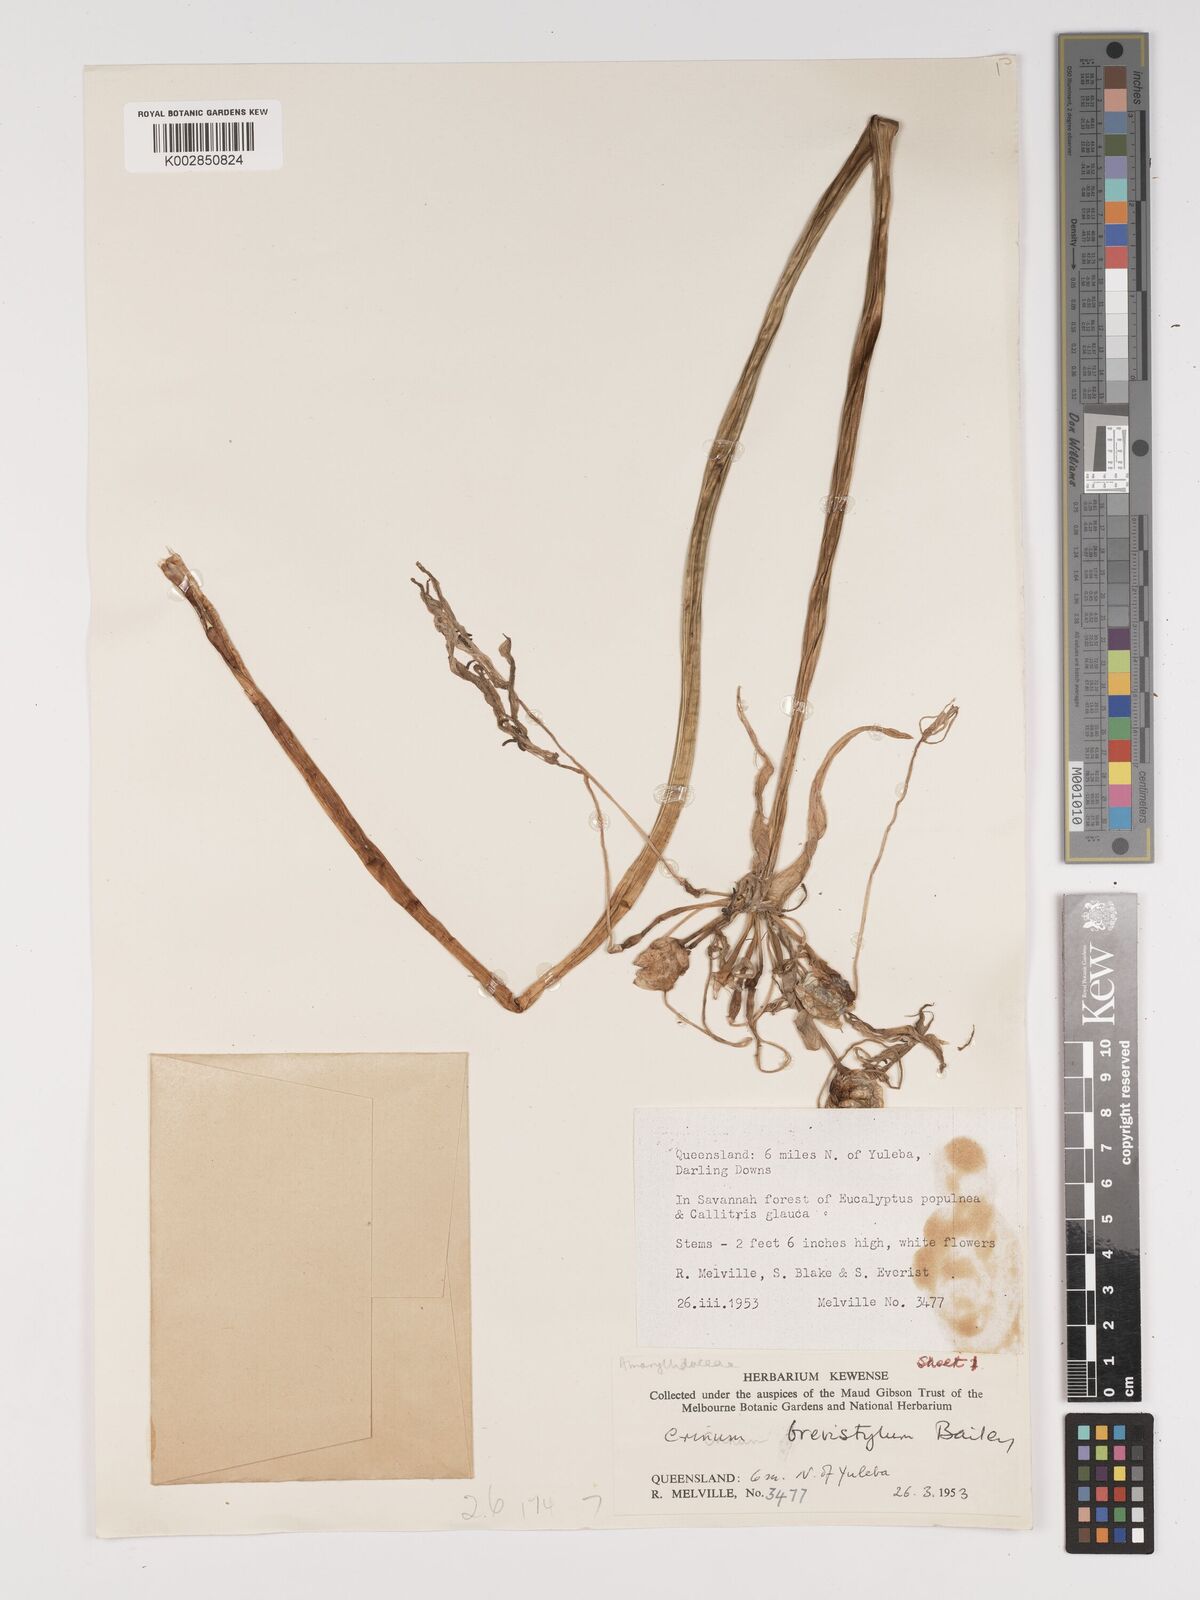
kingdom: Plantae
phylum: Tracheophyta
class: Liliopsida
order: Asparagales
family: Amaryllidaceae
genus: Crinum
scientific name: Crinum venosum
